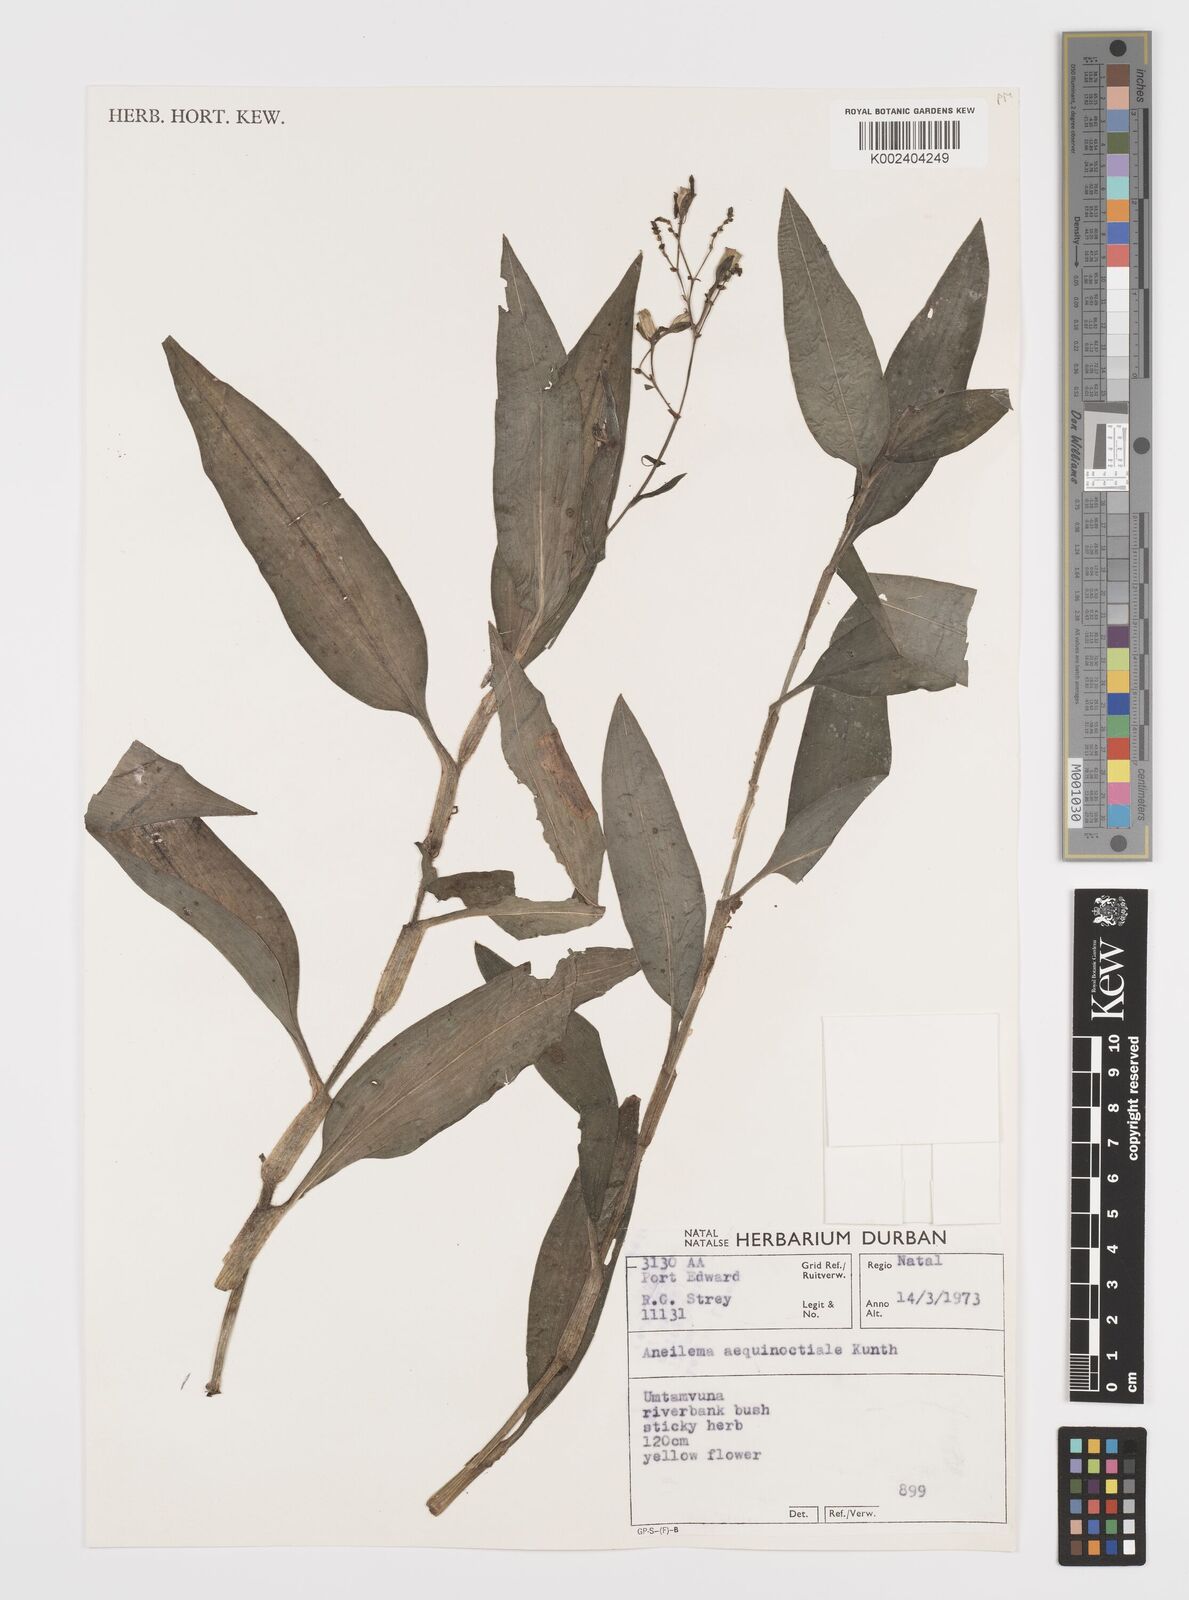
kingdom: Plantae
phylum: Tracheophyta
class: Liliopsida
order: Commelinales
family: Commelinaceae
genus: Aneilema
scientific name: Aneilema aequinoctiale
